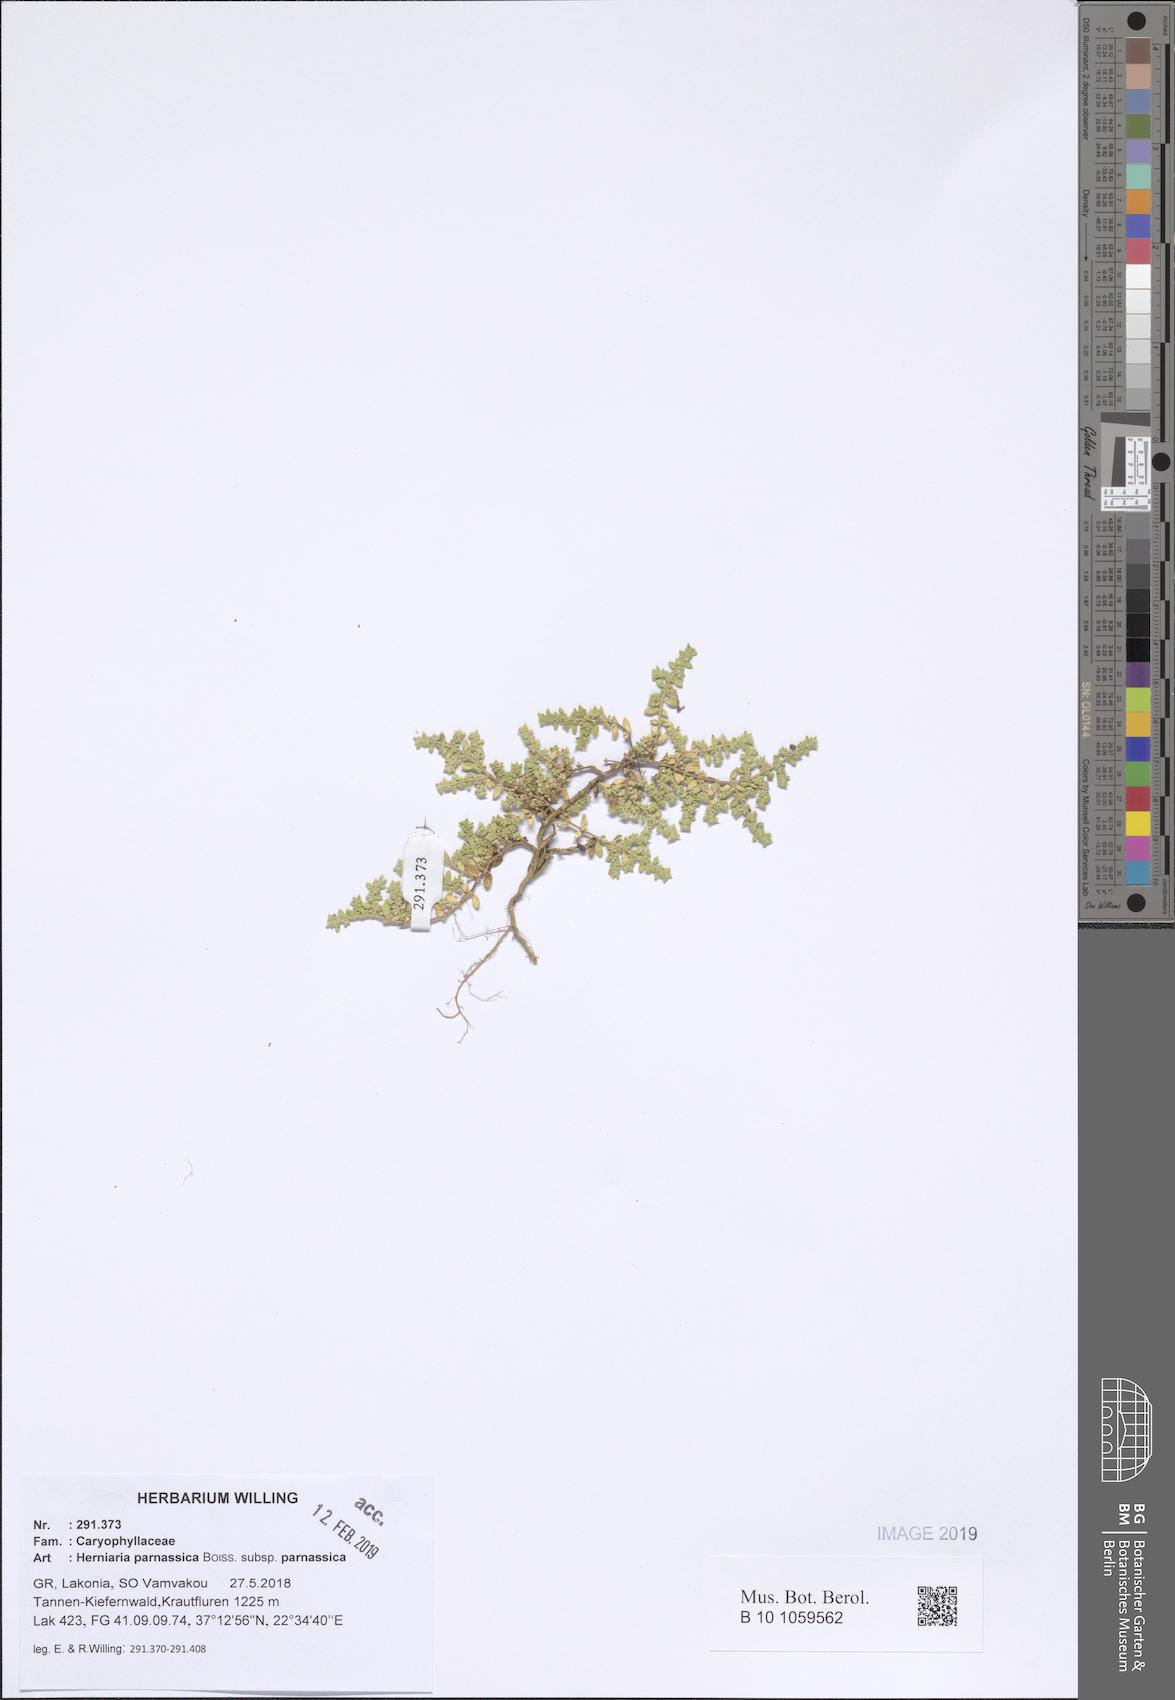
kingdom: Plantae
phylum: Tracheophyta
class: Magnoliopsida
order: Caryophyllales
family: Caryophyllaceae
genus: Herniaria
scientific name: Herniaria parnassica
